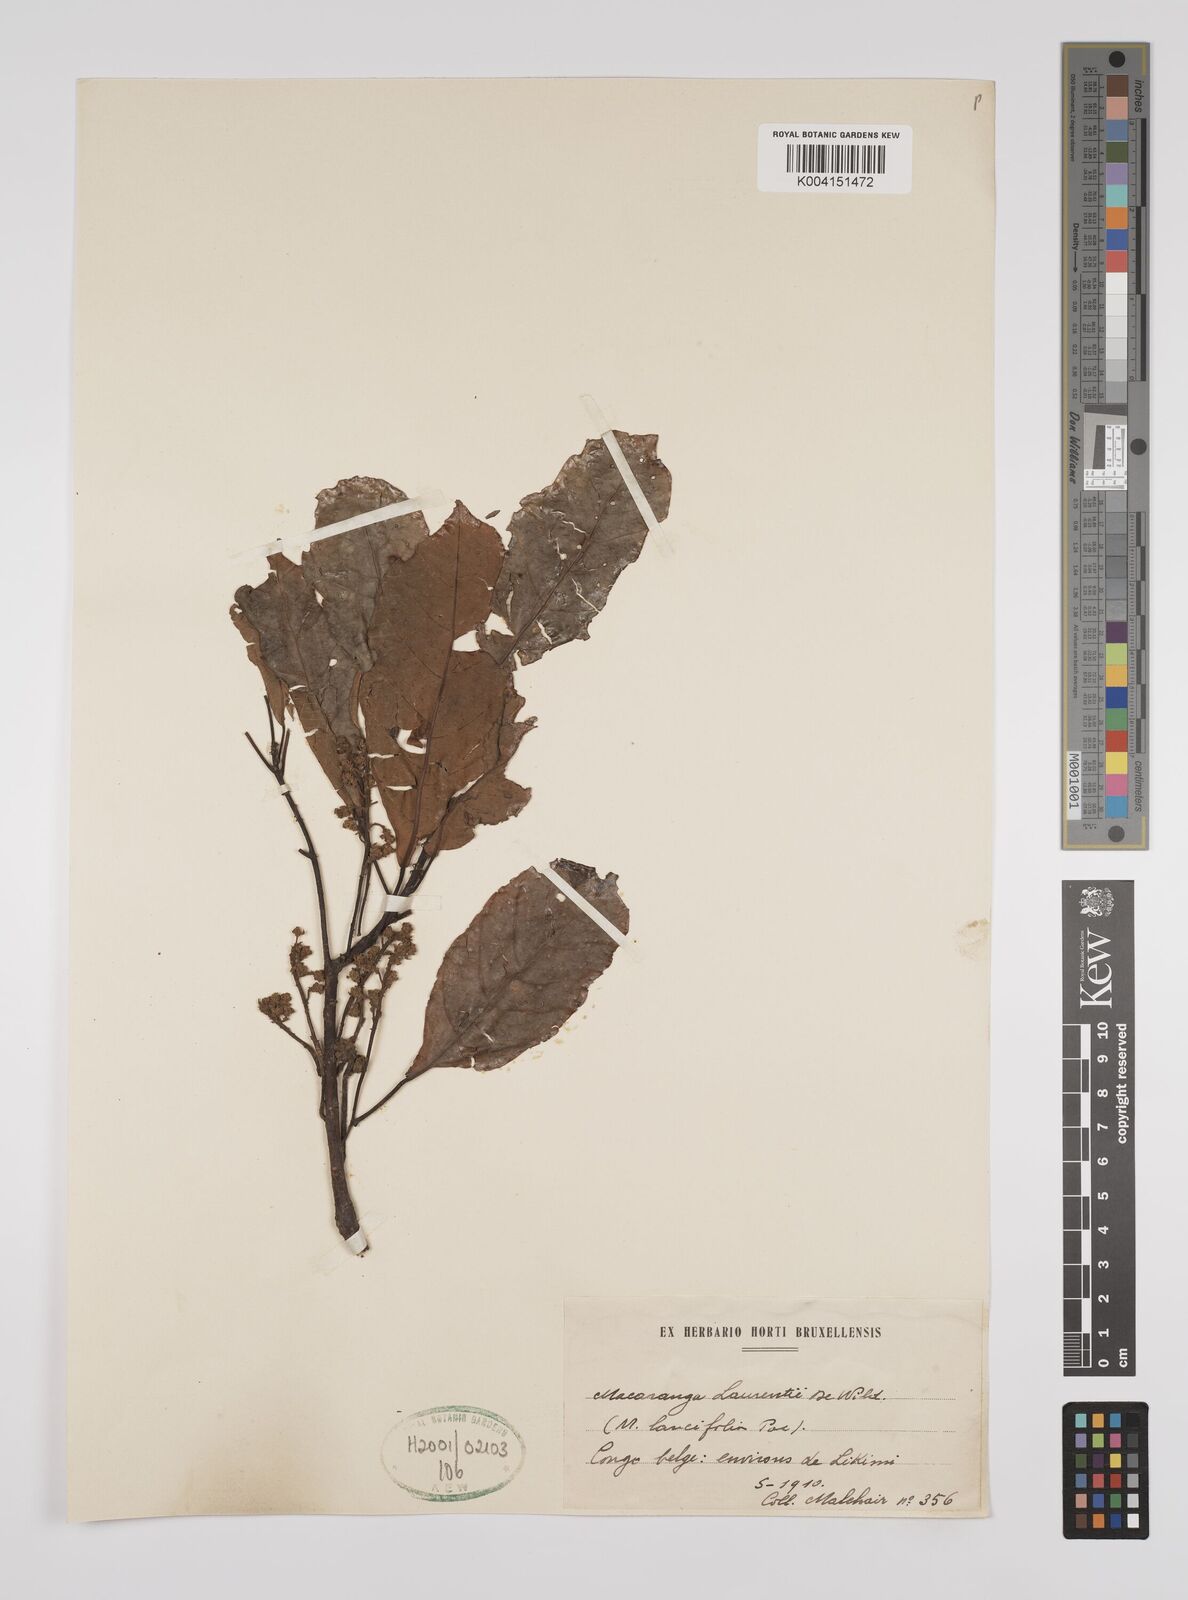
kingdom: Plantae
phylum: Tracheophyta
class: Magnoliopsida
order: Malpighiales
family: Euphorbiaceae
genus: Macaranga
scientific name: Macaranga poggei
